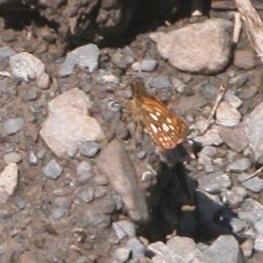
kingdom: Animalia
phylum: Arthropoda
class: Insecta
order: Lepidoptera
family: Hesperiidae
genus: Carterocephalus
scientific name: Carterocephalus palaemon
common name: Chequered Skipper
